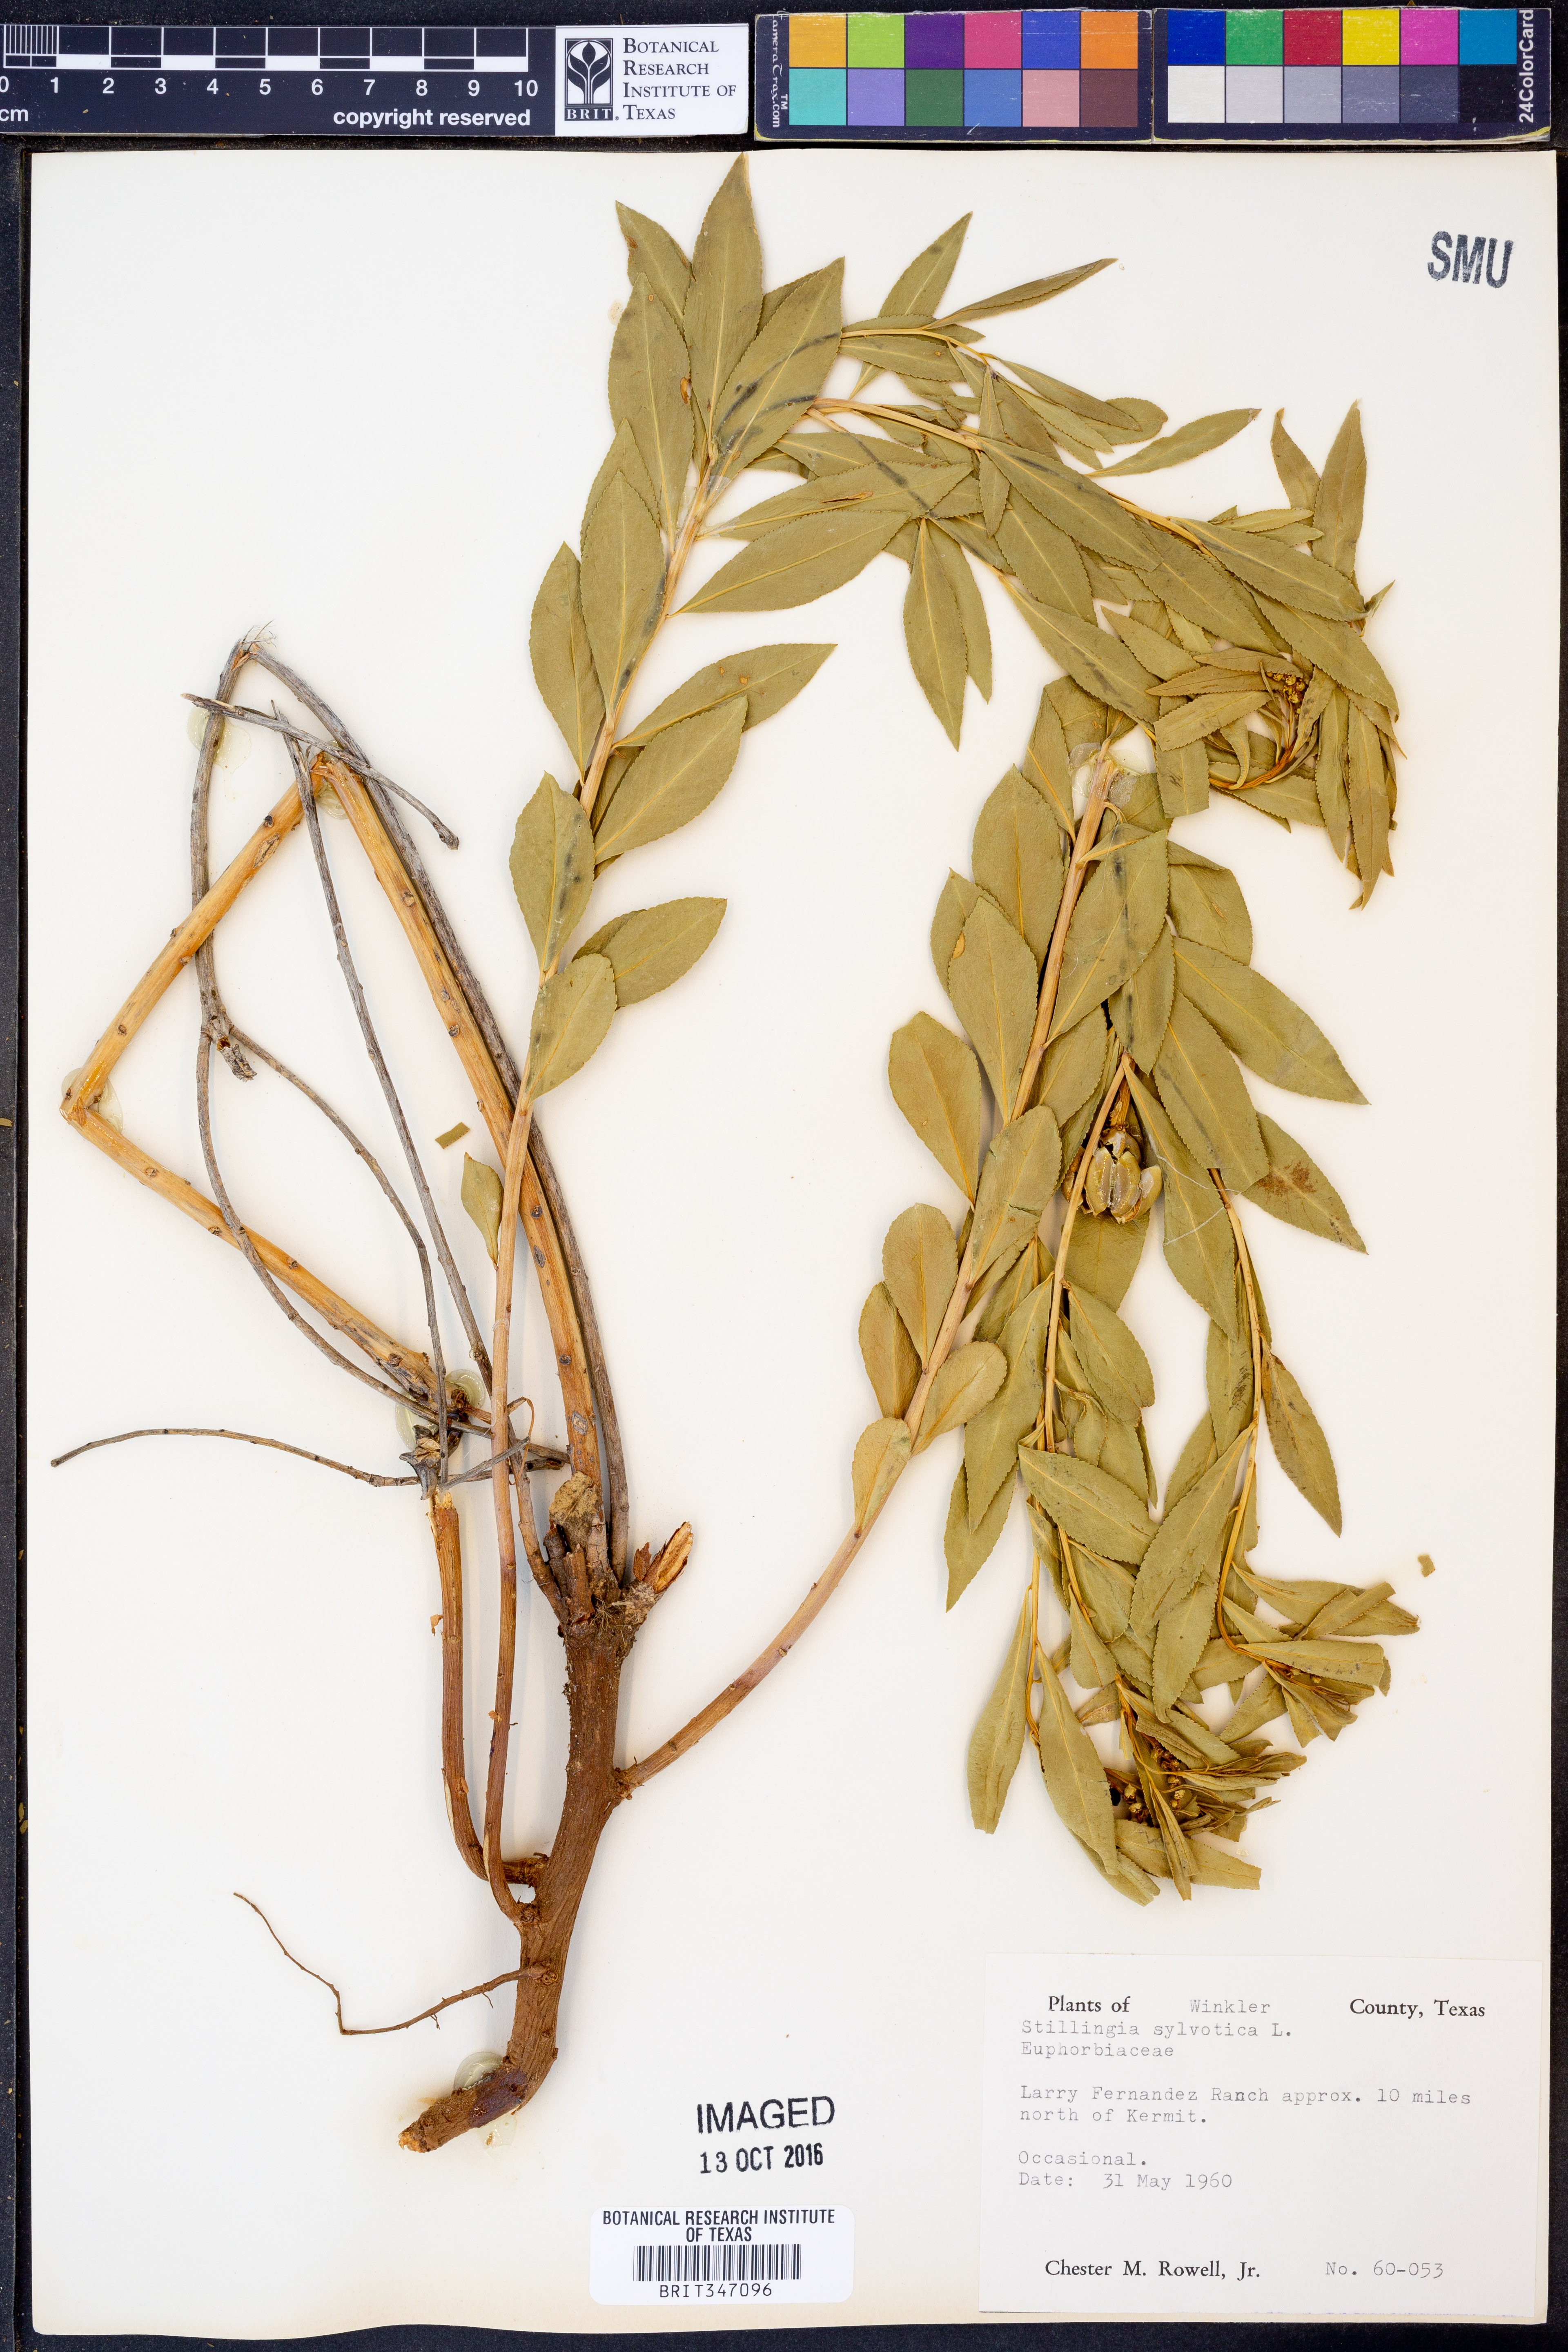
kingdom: Plantae
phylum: Tracheophyta
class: Magnoliopsida
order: Malpighiales
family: Euphorbiaceae
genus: Stillingia
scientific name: Stillingia sylvatica
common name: Queen's-delight
